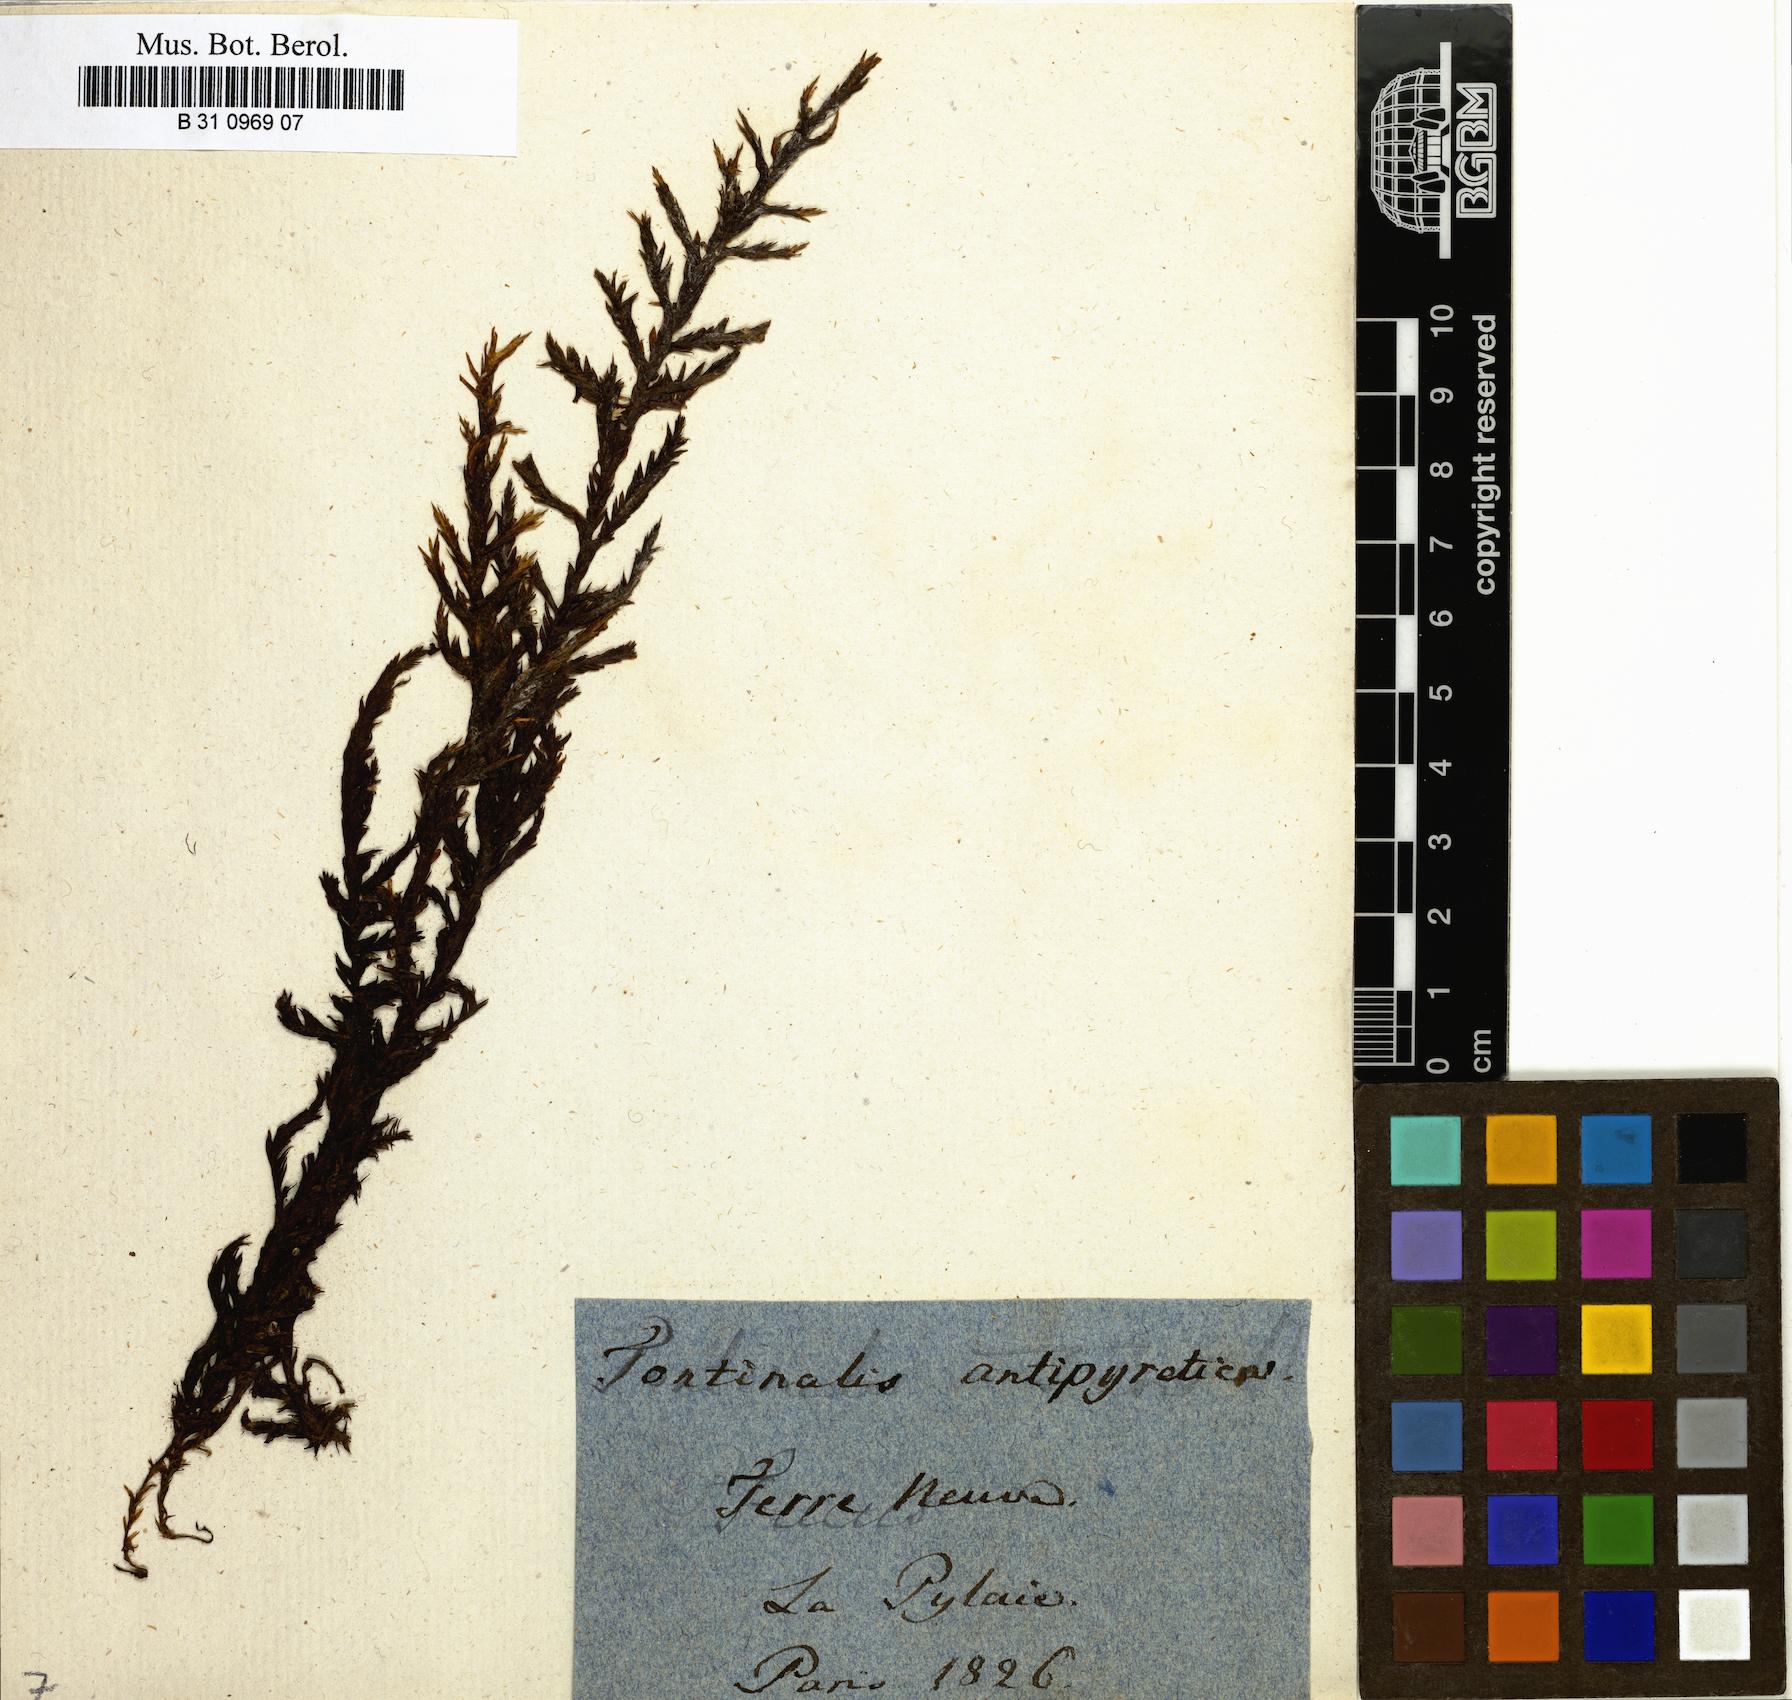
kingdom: Plantae
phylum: Bryophyta
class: Bryopsida
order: Hypnales
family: Fontinalaceae
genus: Fontinalis
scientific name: Fontinalis antipyretica
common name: Greater water-moss
